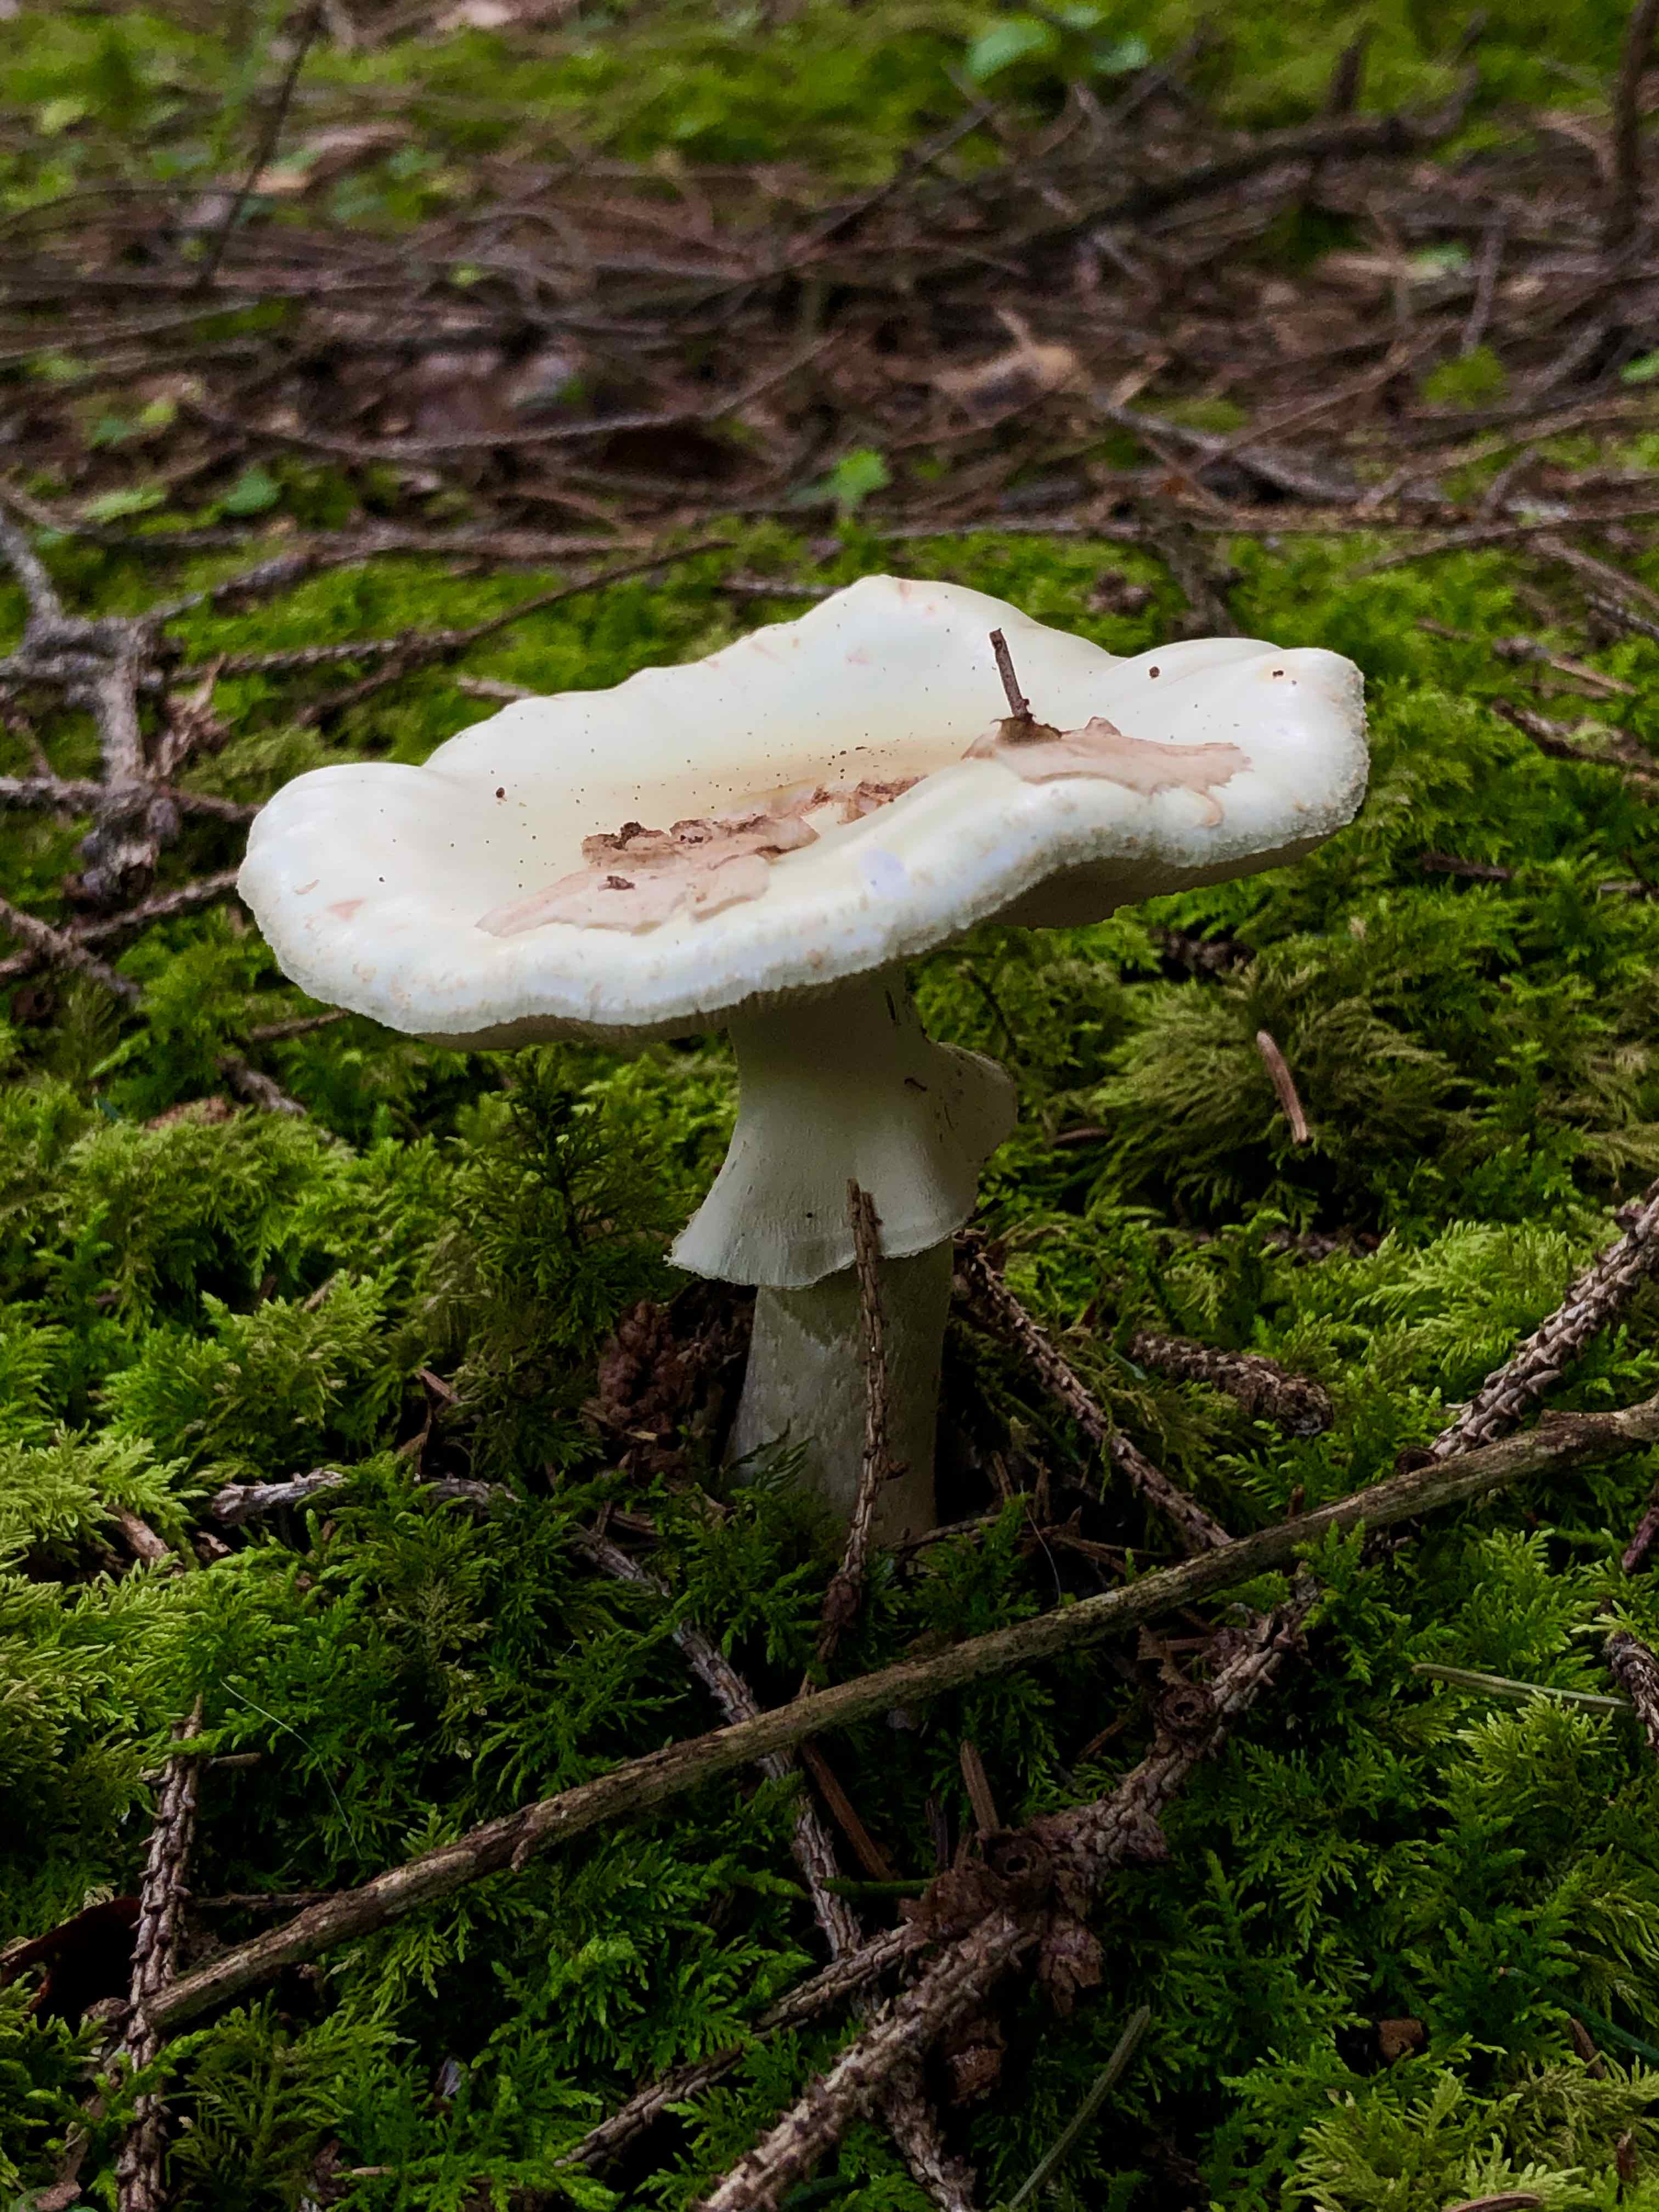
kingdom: Fungi
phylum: Basidiomycota
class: Agaricomycetes
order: Agaricales
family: Amanitaceae
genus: Amanita
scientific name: Amanita
